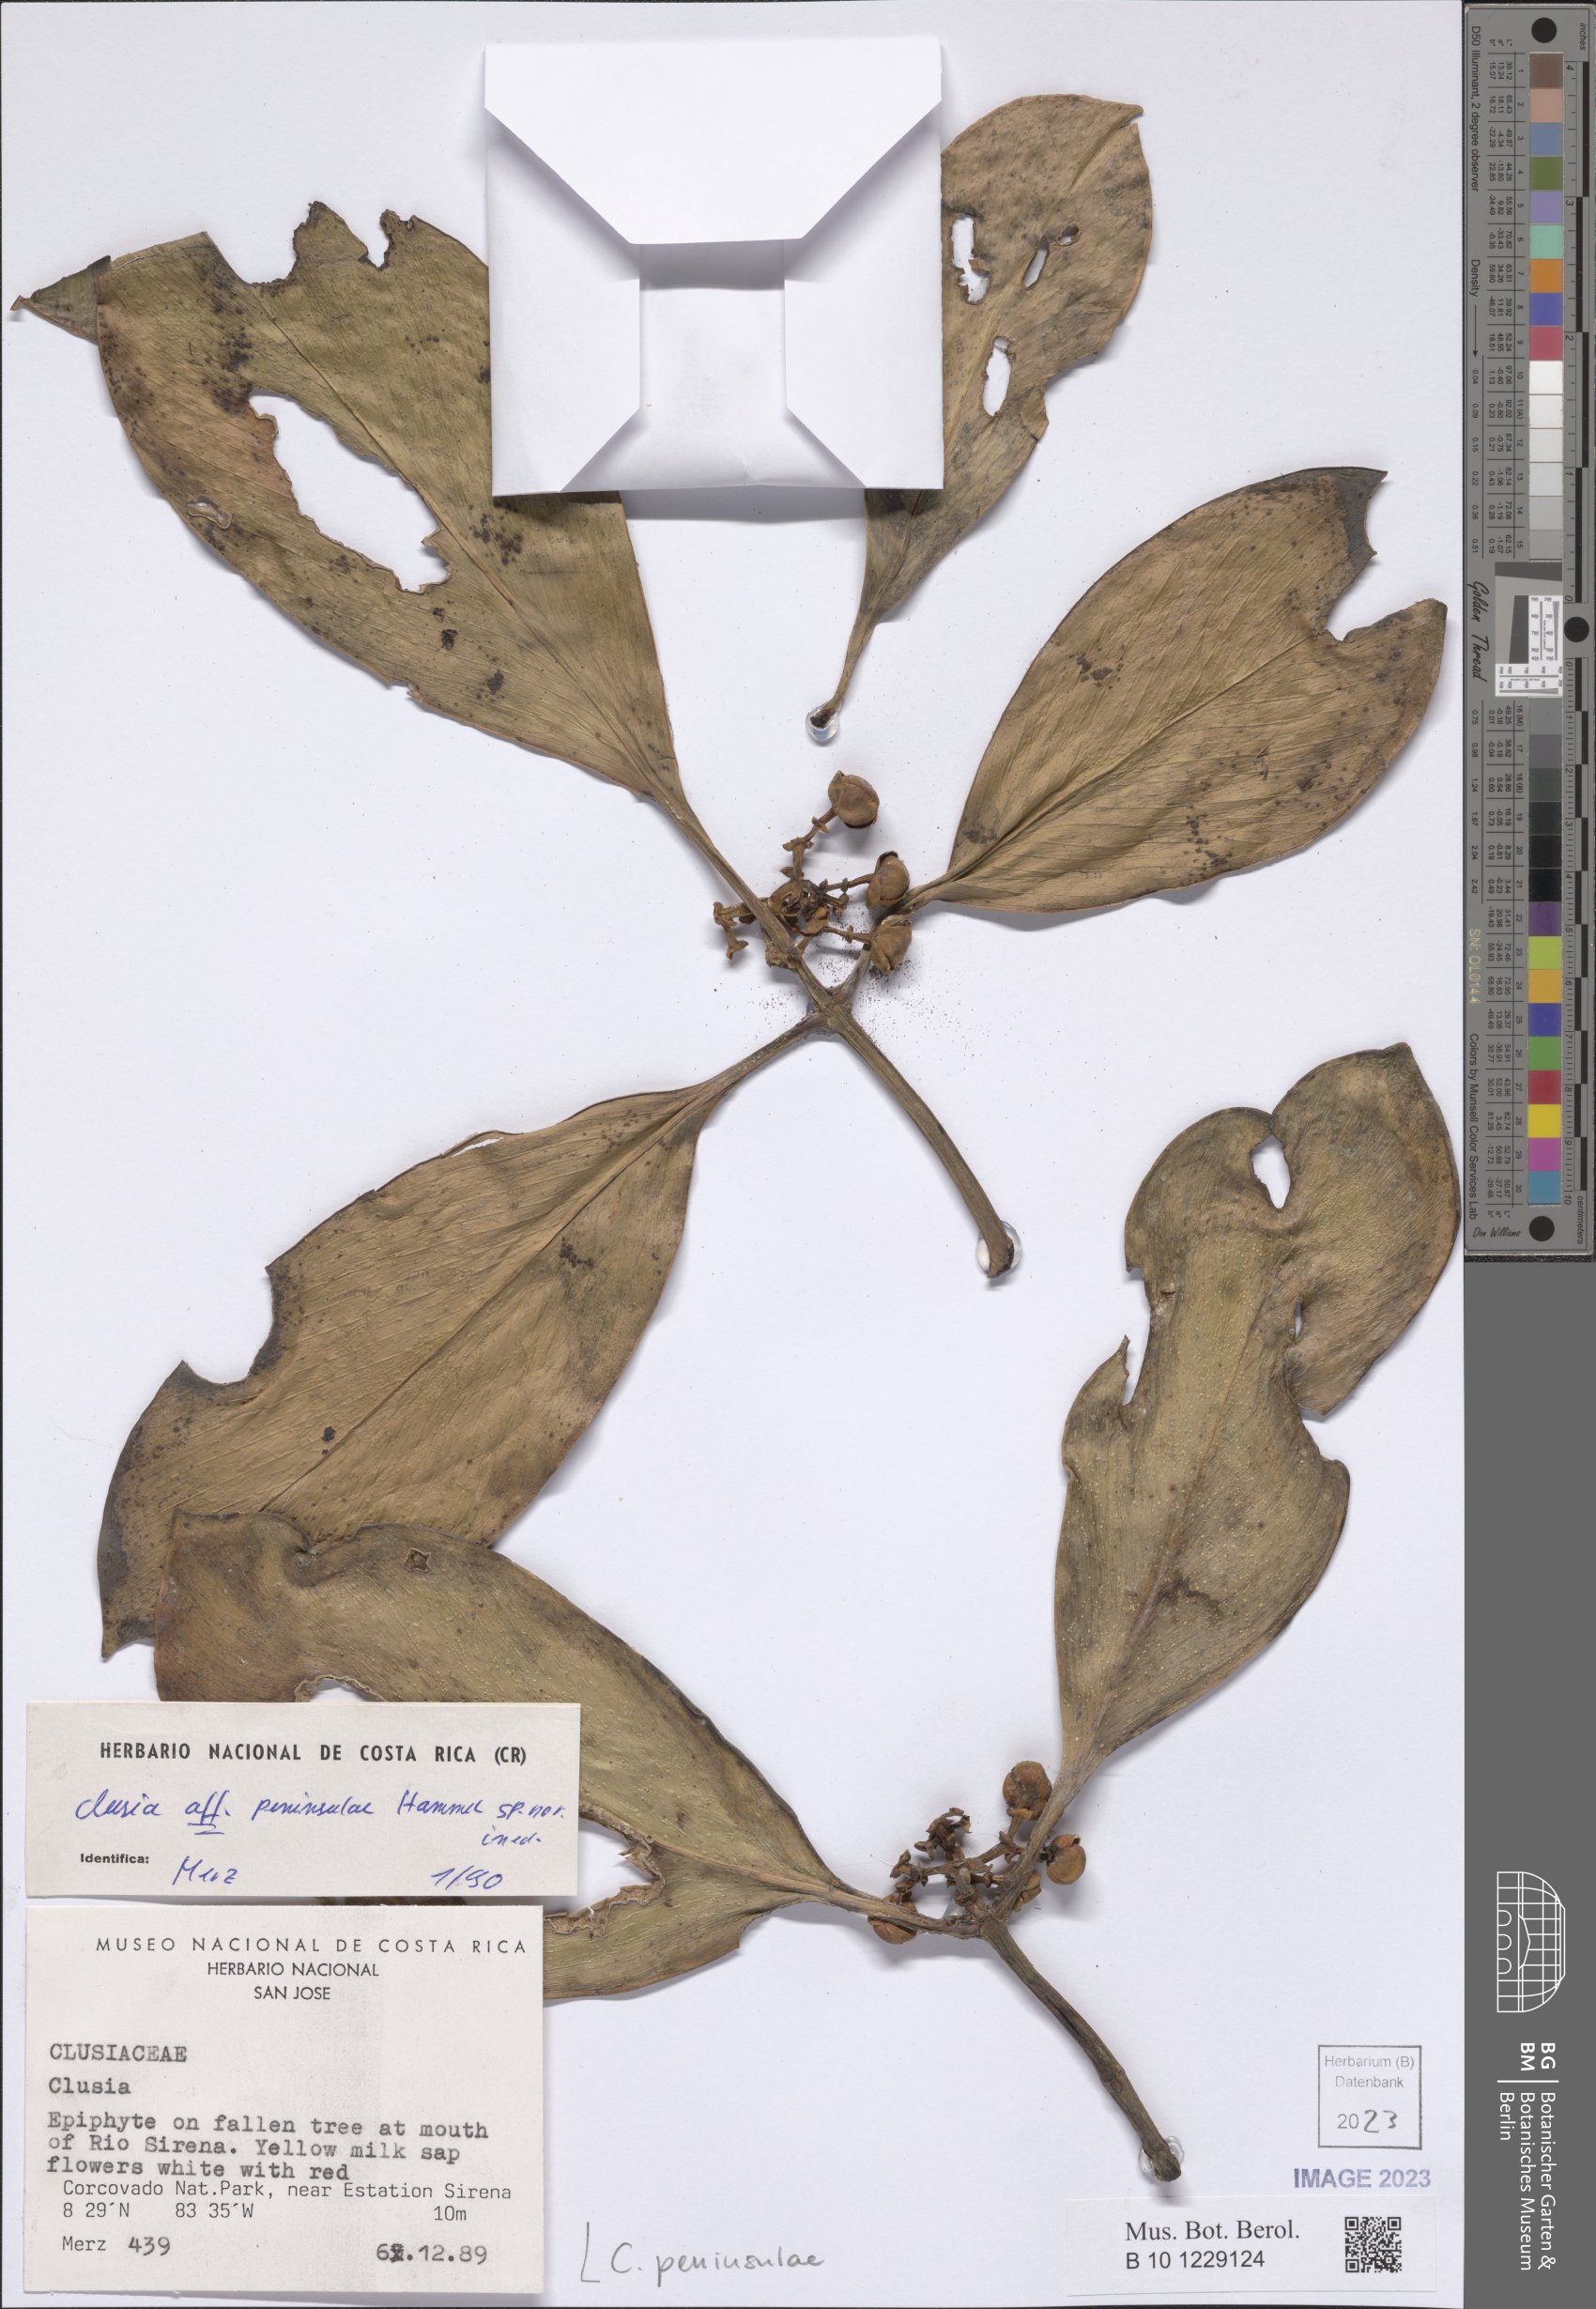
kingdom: Plantae
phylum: Tracheophyta
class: Magnoliopsida
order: Malpighiales
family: Clusiaceae
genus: Clusia
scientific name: Clusia peninsulae
